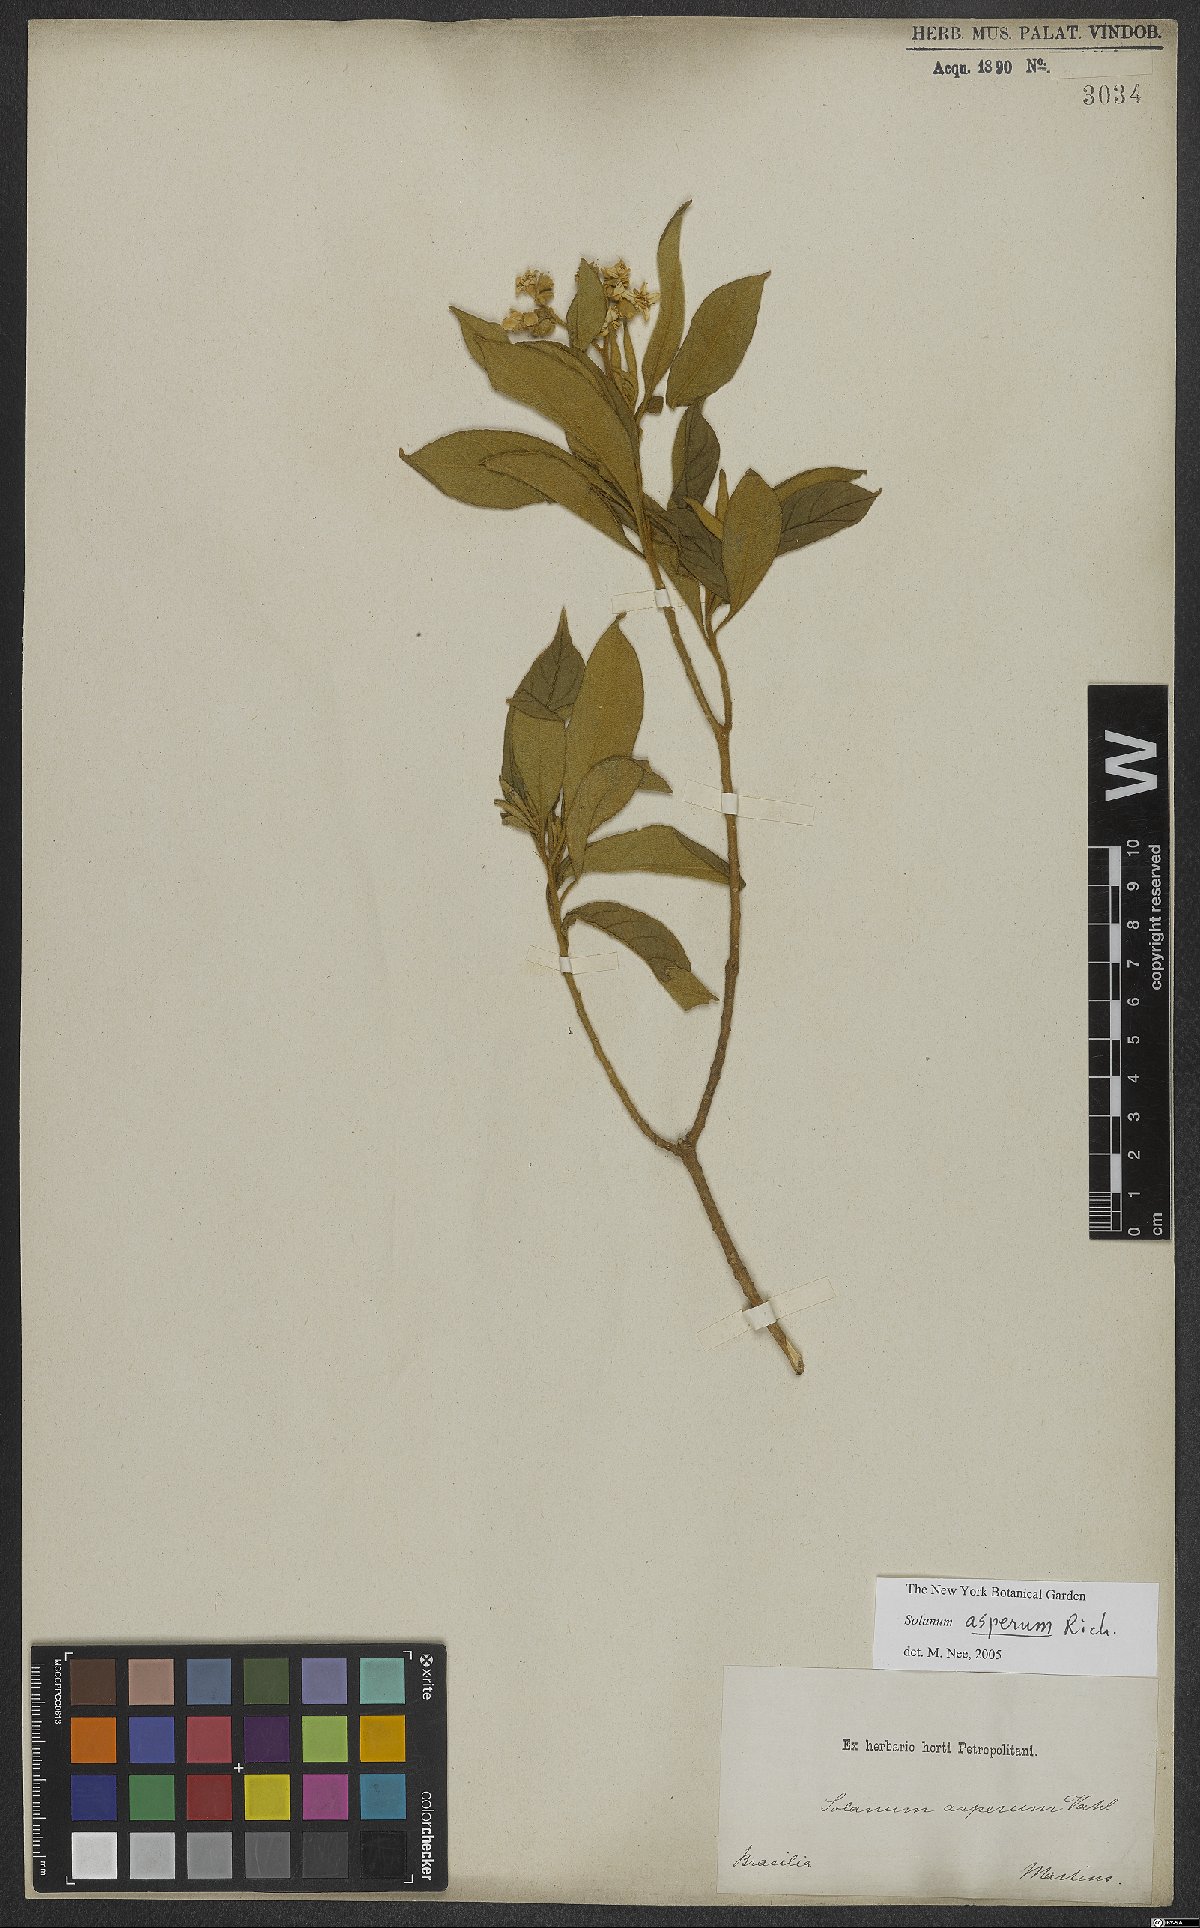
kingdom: Plantae
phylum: Tracheophyta
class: Magnoliopsida
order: Solanales
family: Solanaceae
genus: Solanum
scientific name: Solanum asperum
